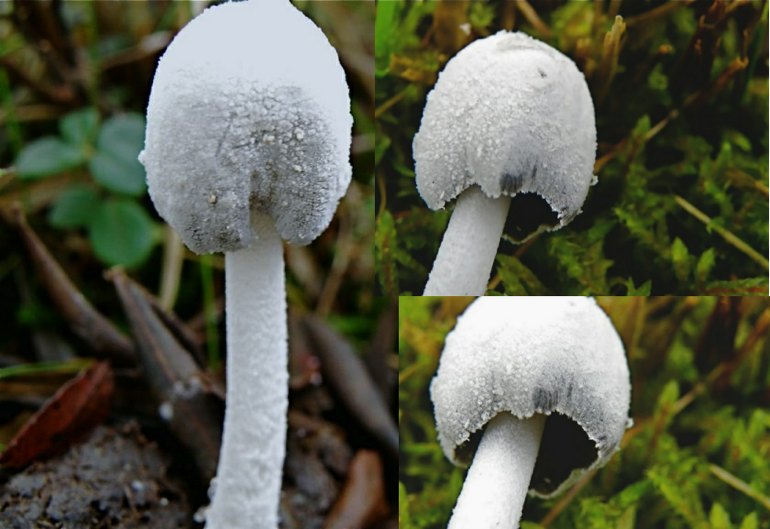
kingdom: Fungi
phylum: Basidiomycota
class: Agaricomycetes
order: Agaricales
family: Psathyrellaceae
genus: Coprinopsis
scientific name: Coprinopsis nivea
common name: snehvid blækhat
